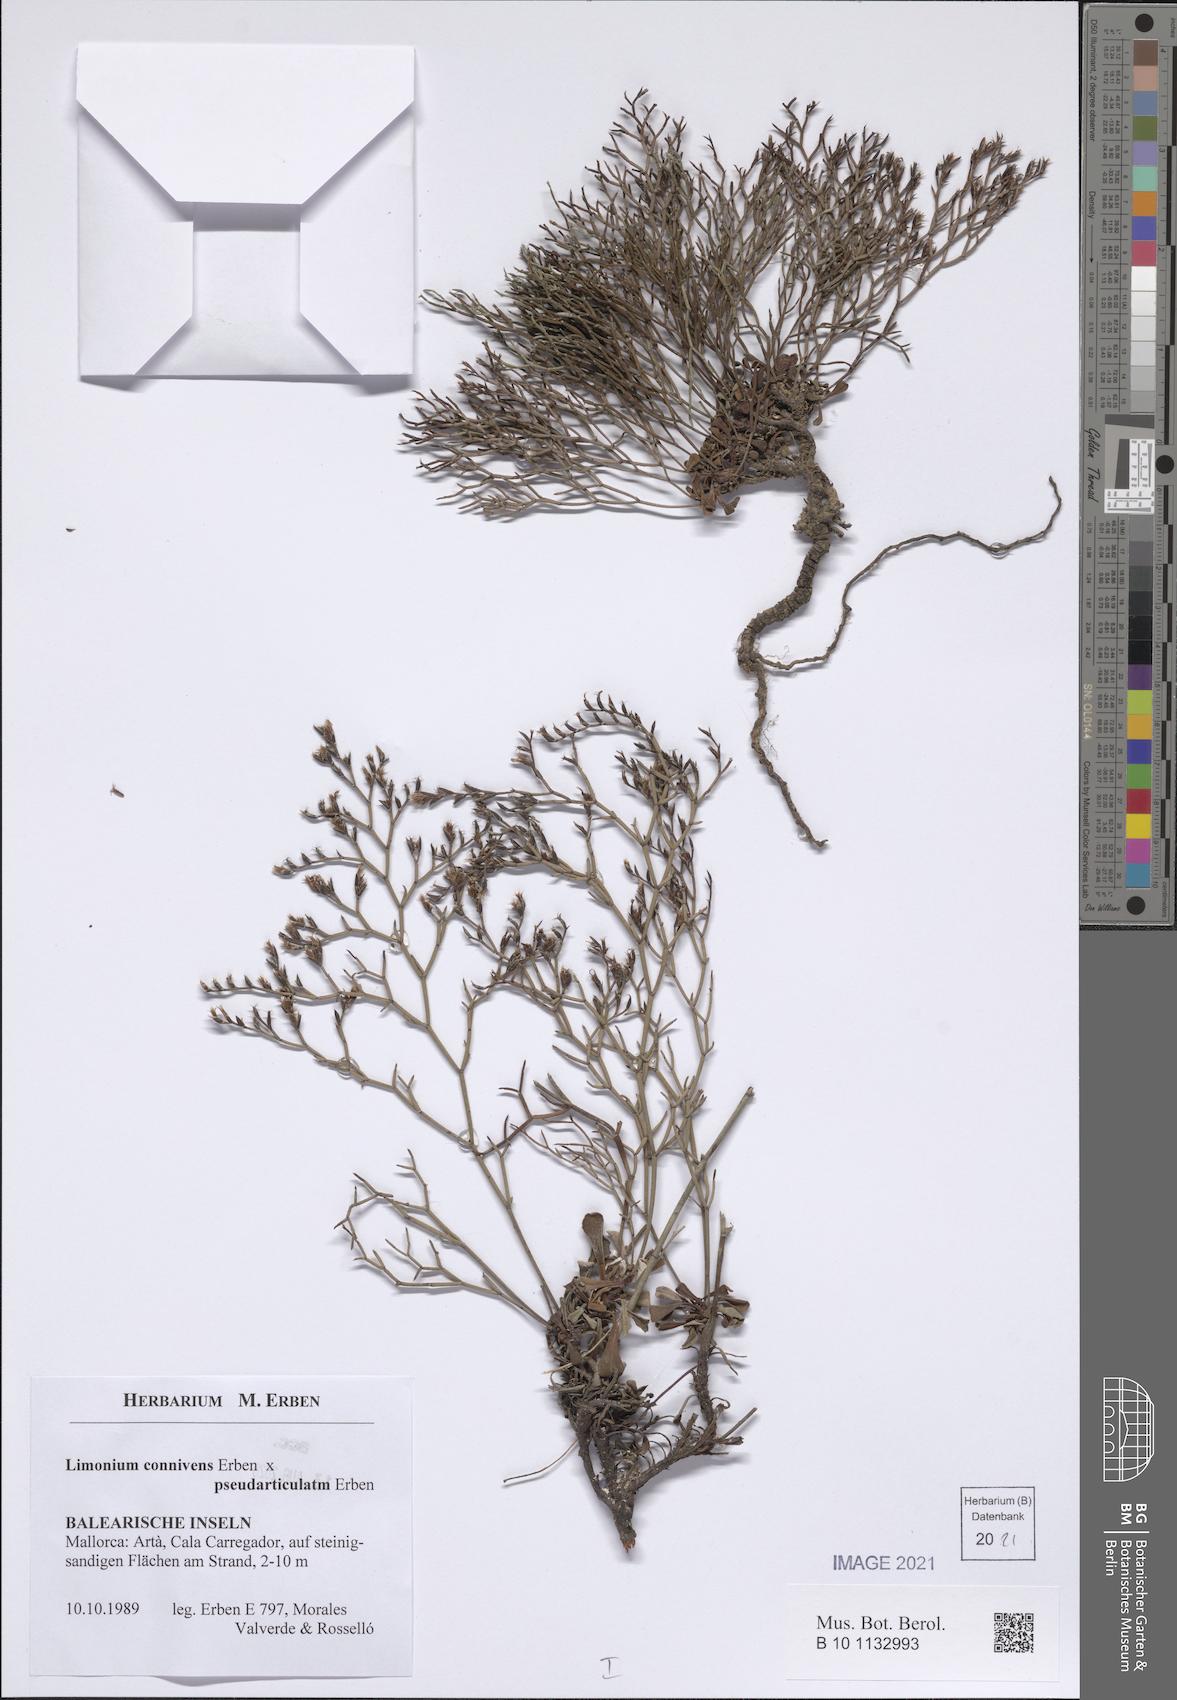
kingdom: Plantae
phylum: Tracheophyta
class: Magnoliopsida
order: Caryophyllales
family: Plumbaginaceae
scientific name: Plumbaginaceae
